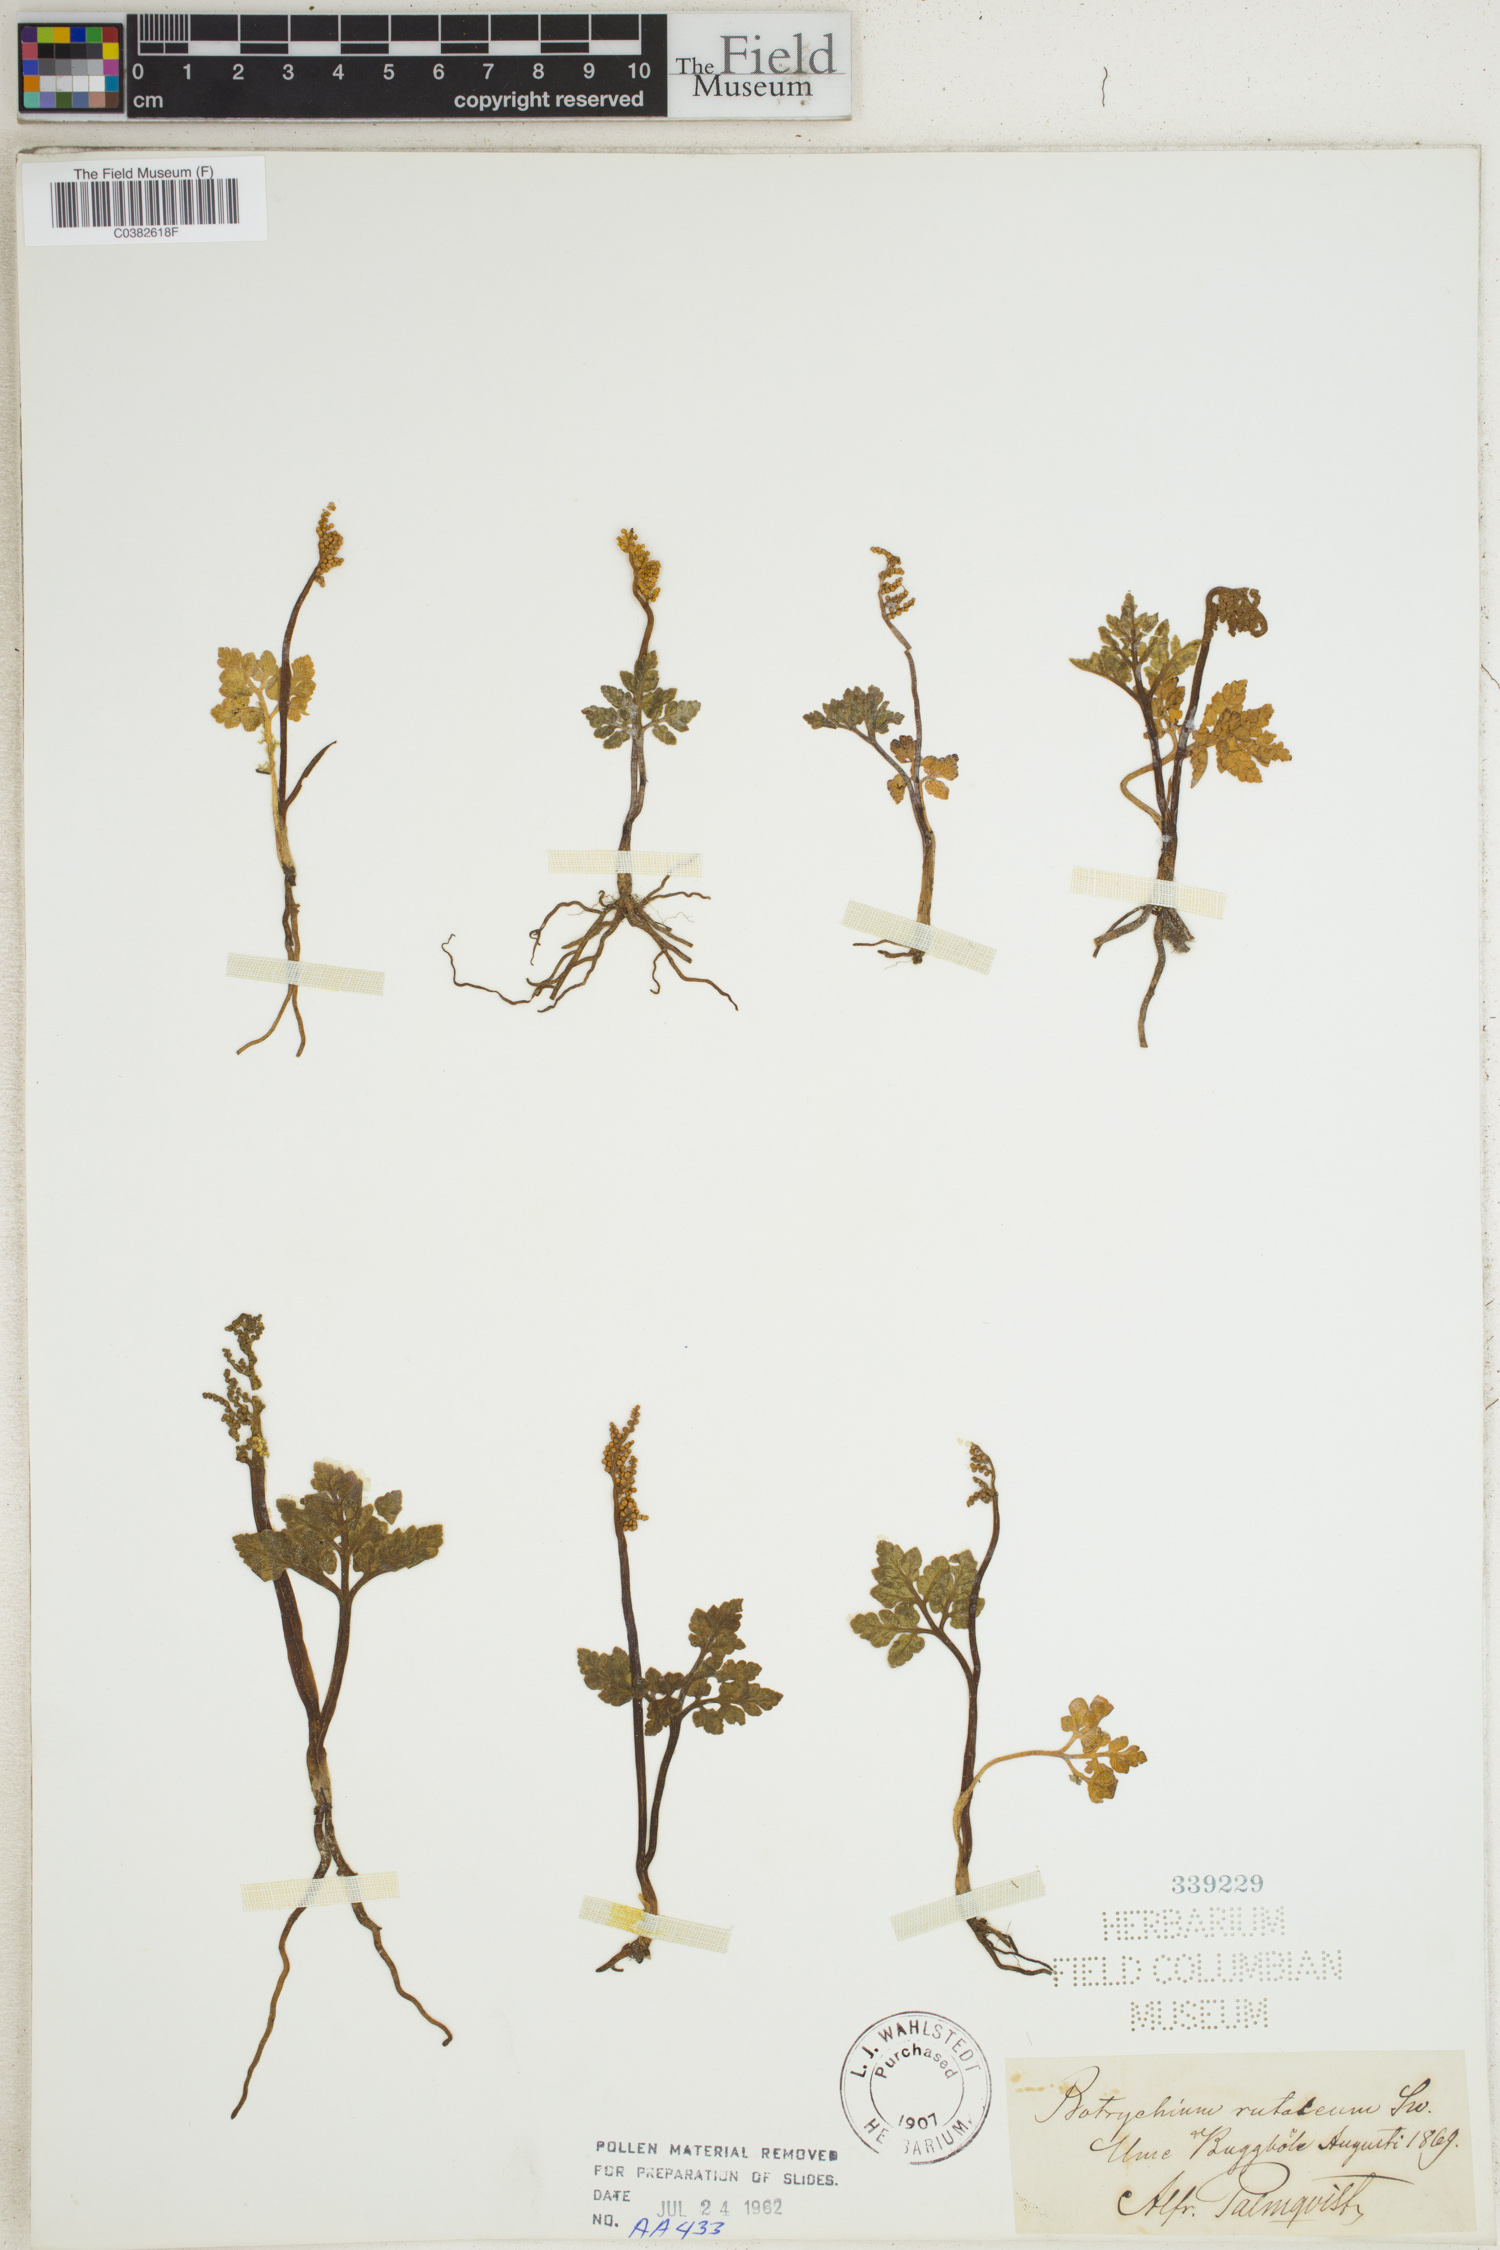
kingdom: Plantae
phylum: Tracheophyta
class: Polypodiopsida
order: Ophioglossales
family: Ophioglossaceae
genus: Botrychium
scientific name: Botrychium matricariifolium
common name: Branched moonwort
